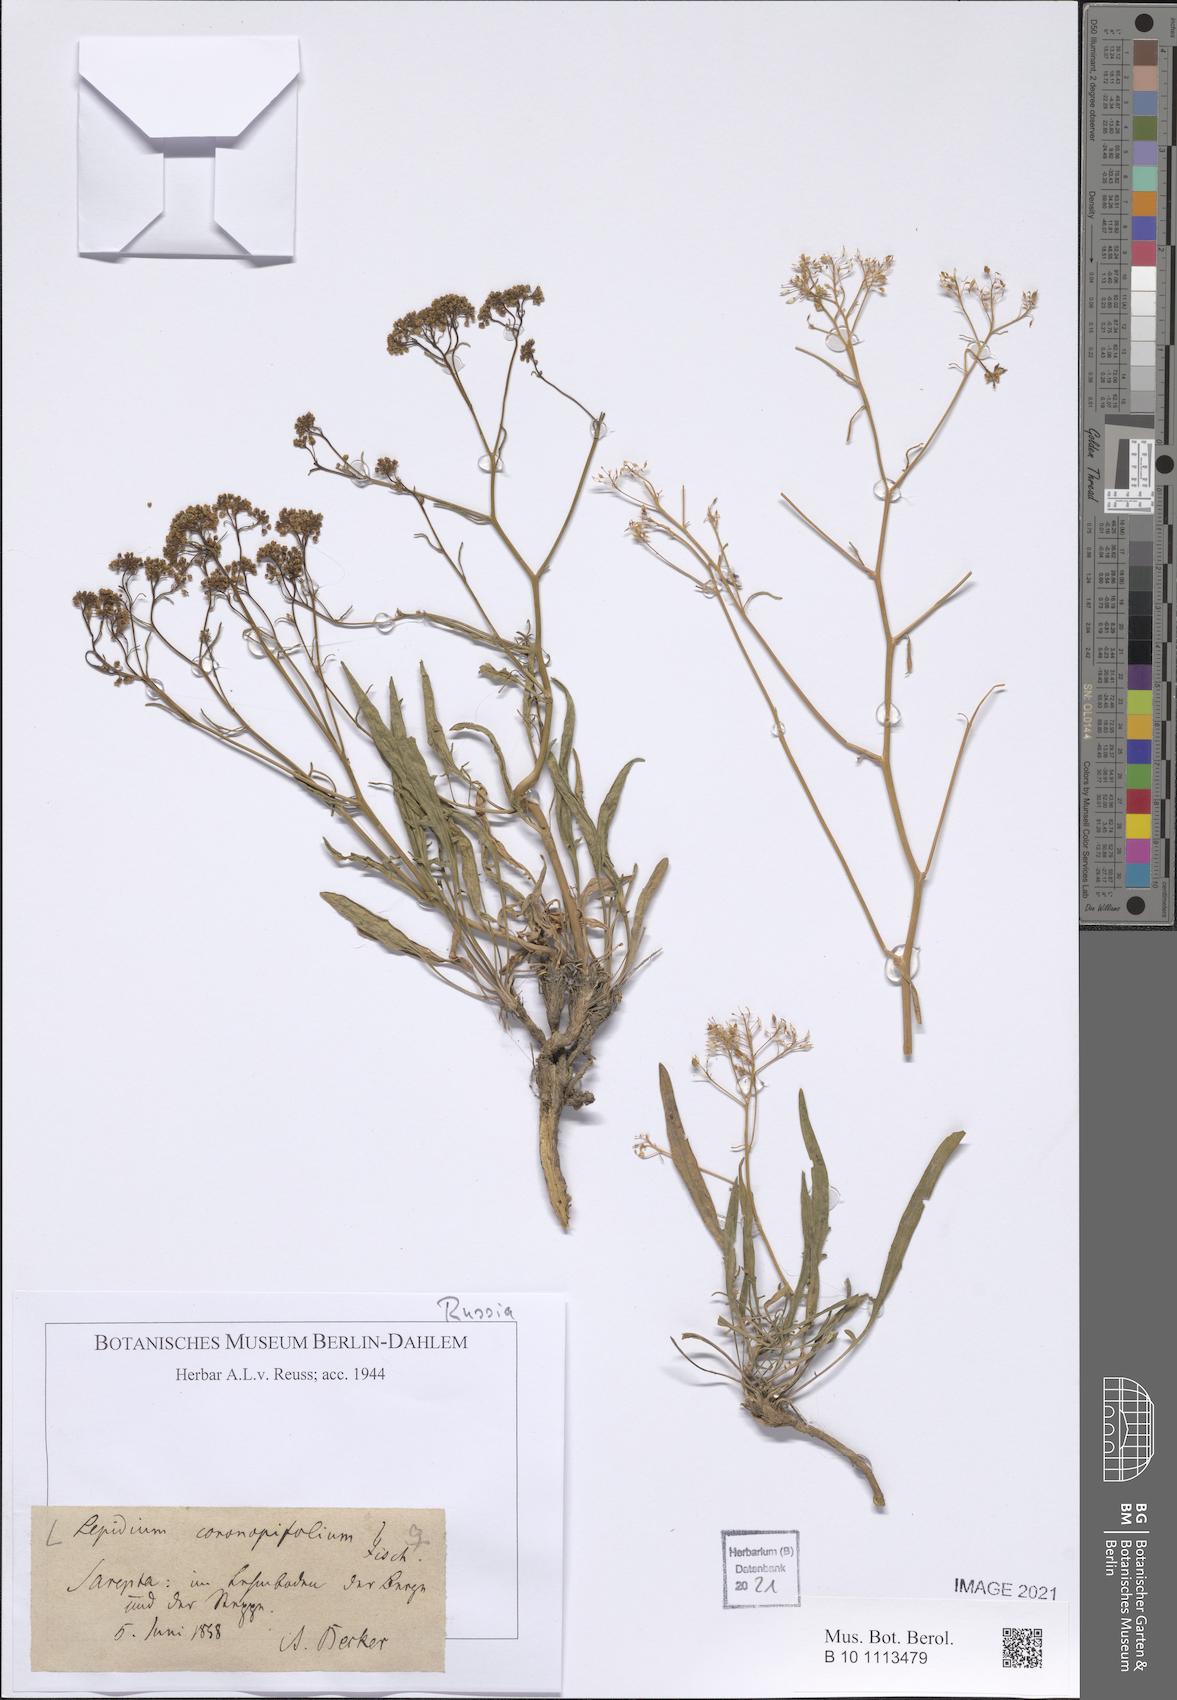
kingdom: Plantae
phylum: Tracheophyta
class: Magnoliopsida
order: Brassicales
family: Brassicaceae
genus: Lepidium
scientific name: Lepidium coronopifolium
